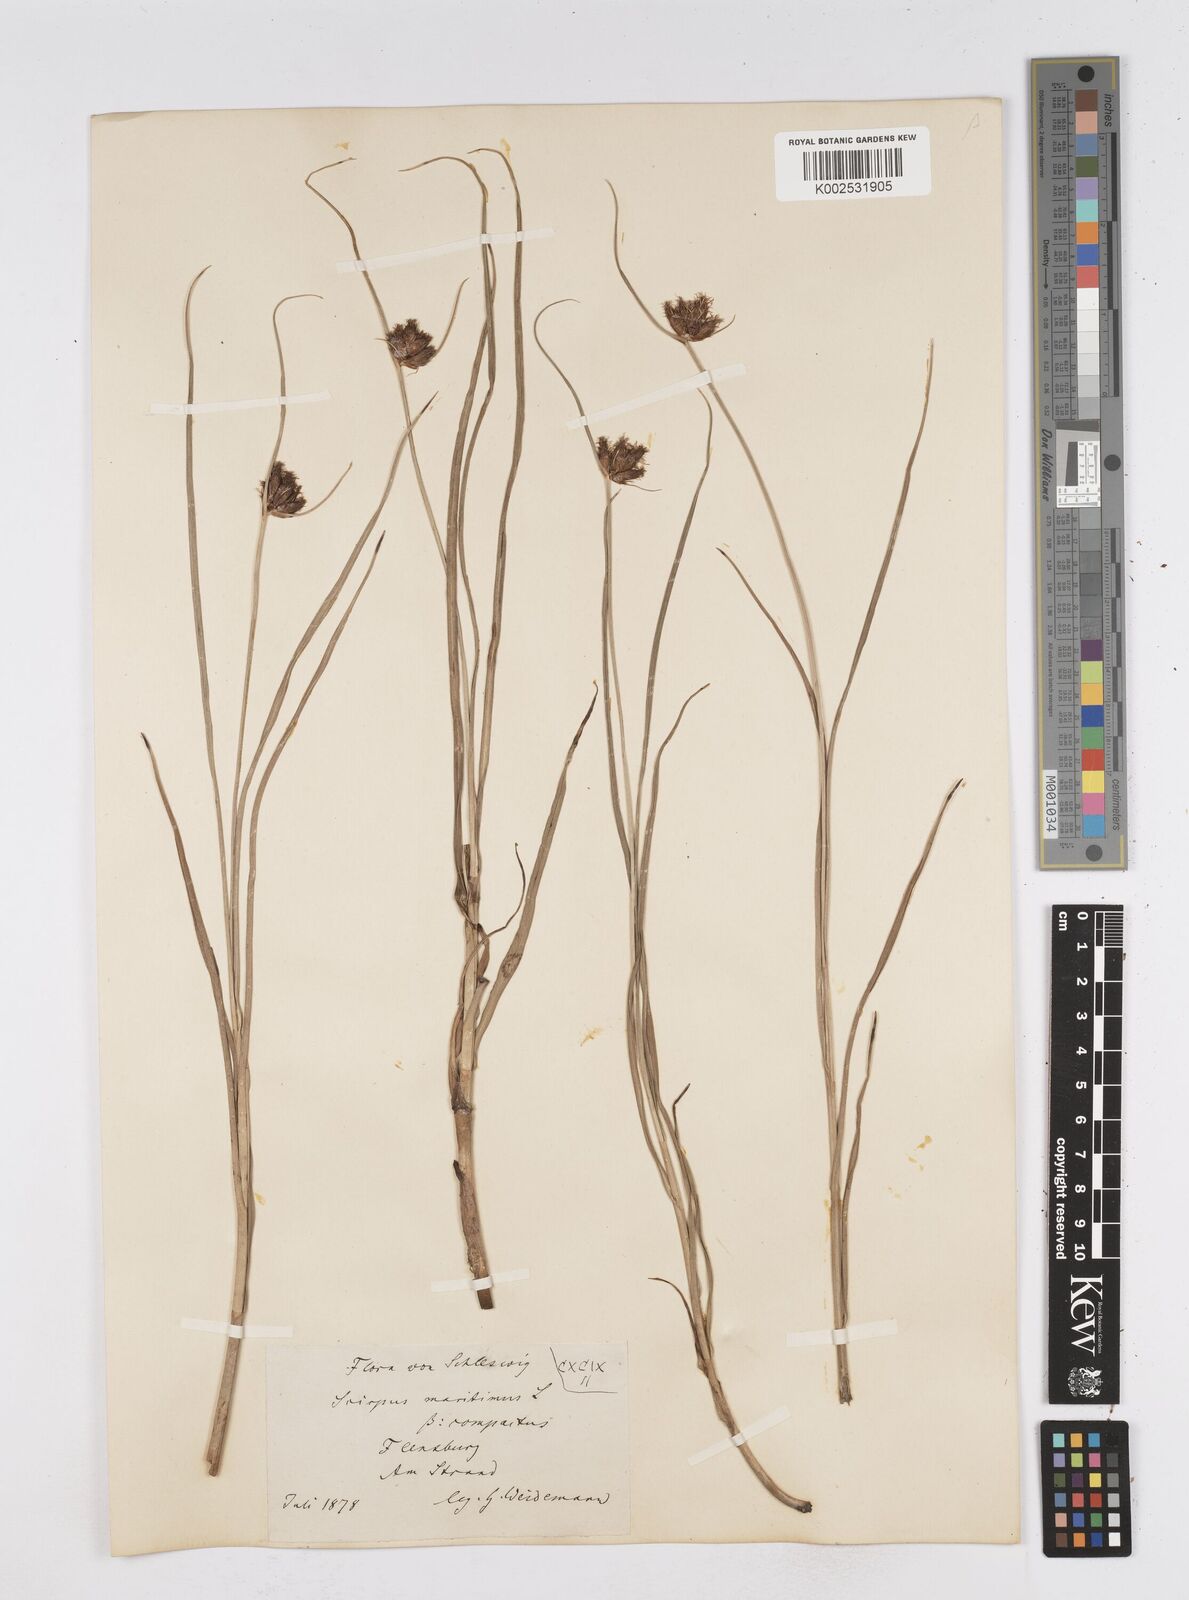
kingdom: Plantae
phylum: Tracheophyta
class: Liliopsida
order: Poales
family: Cyperaceae
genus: Bolboschoenus
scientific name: Bolboschoenus maritimus
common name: Sea club-rush
